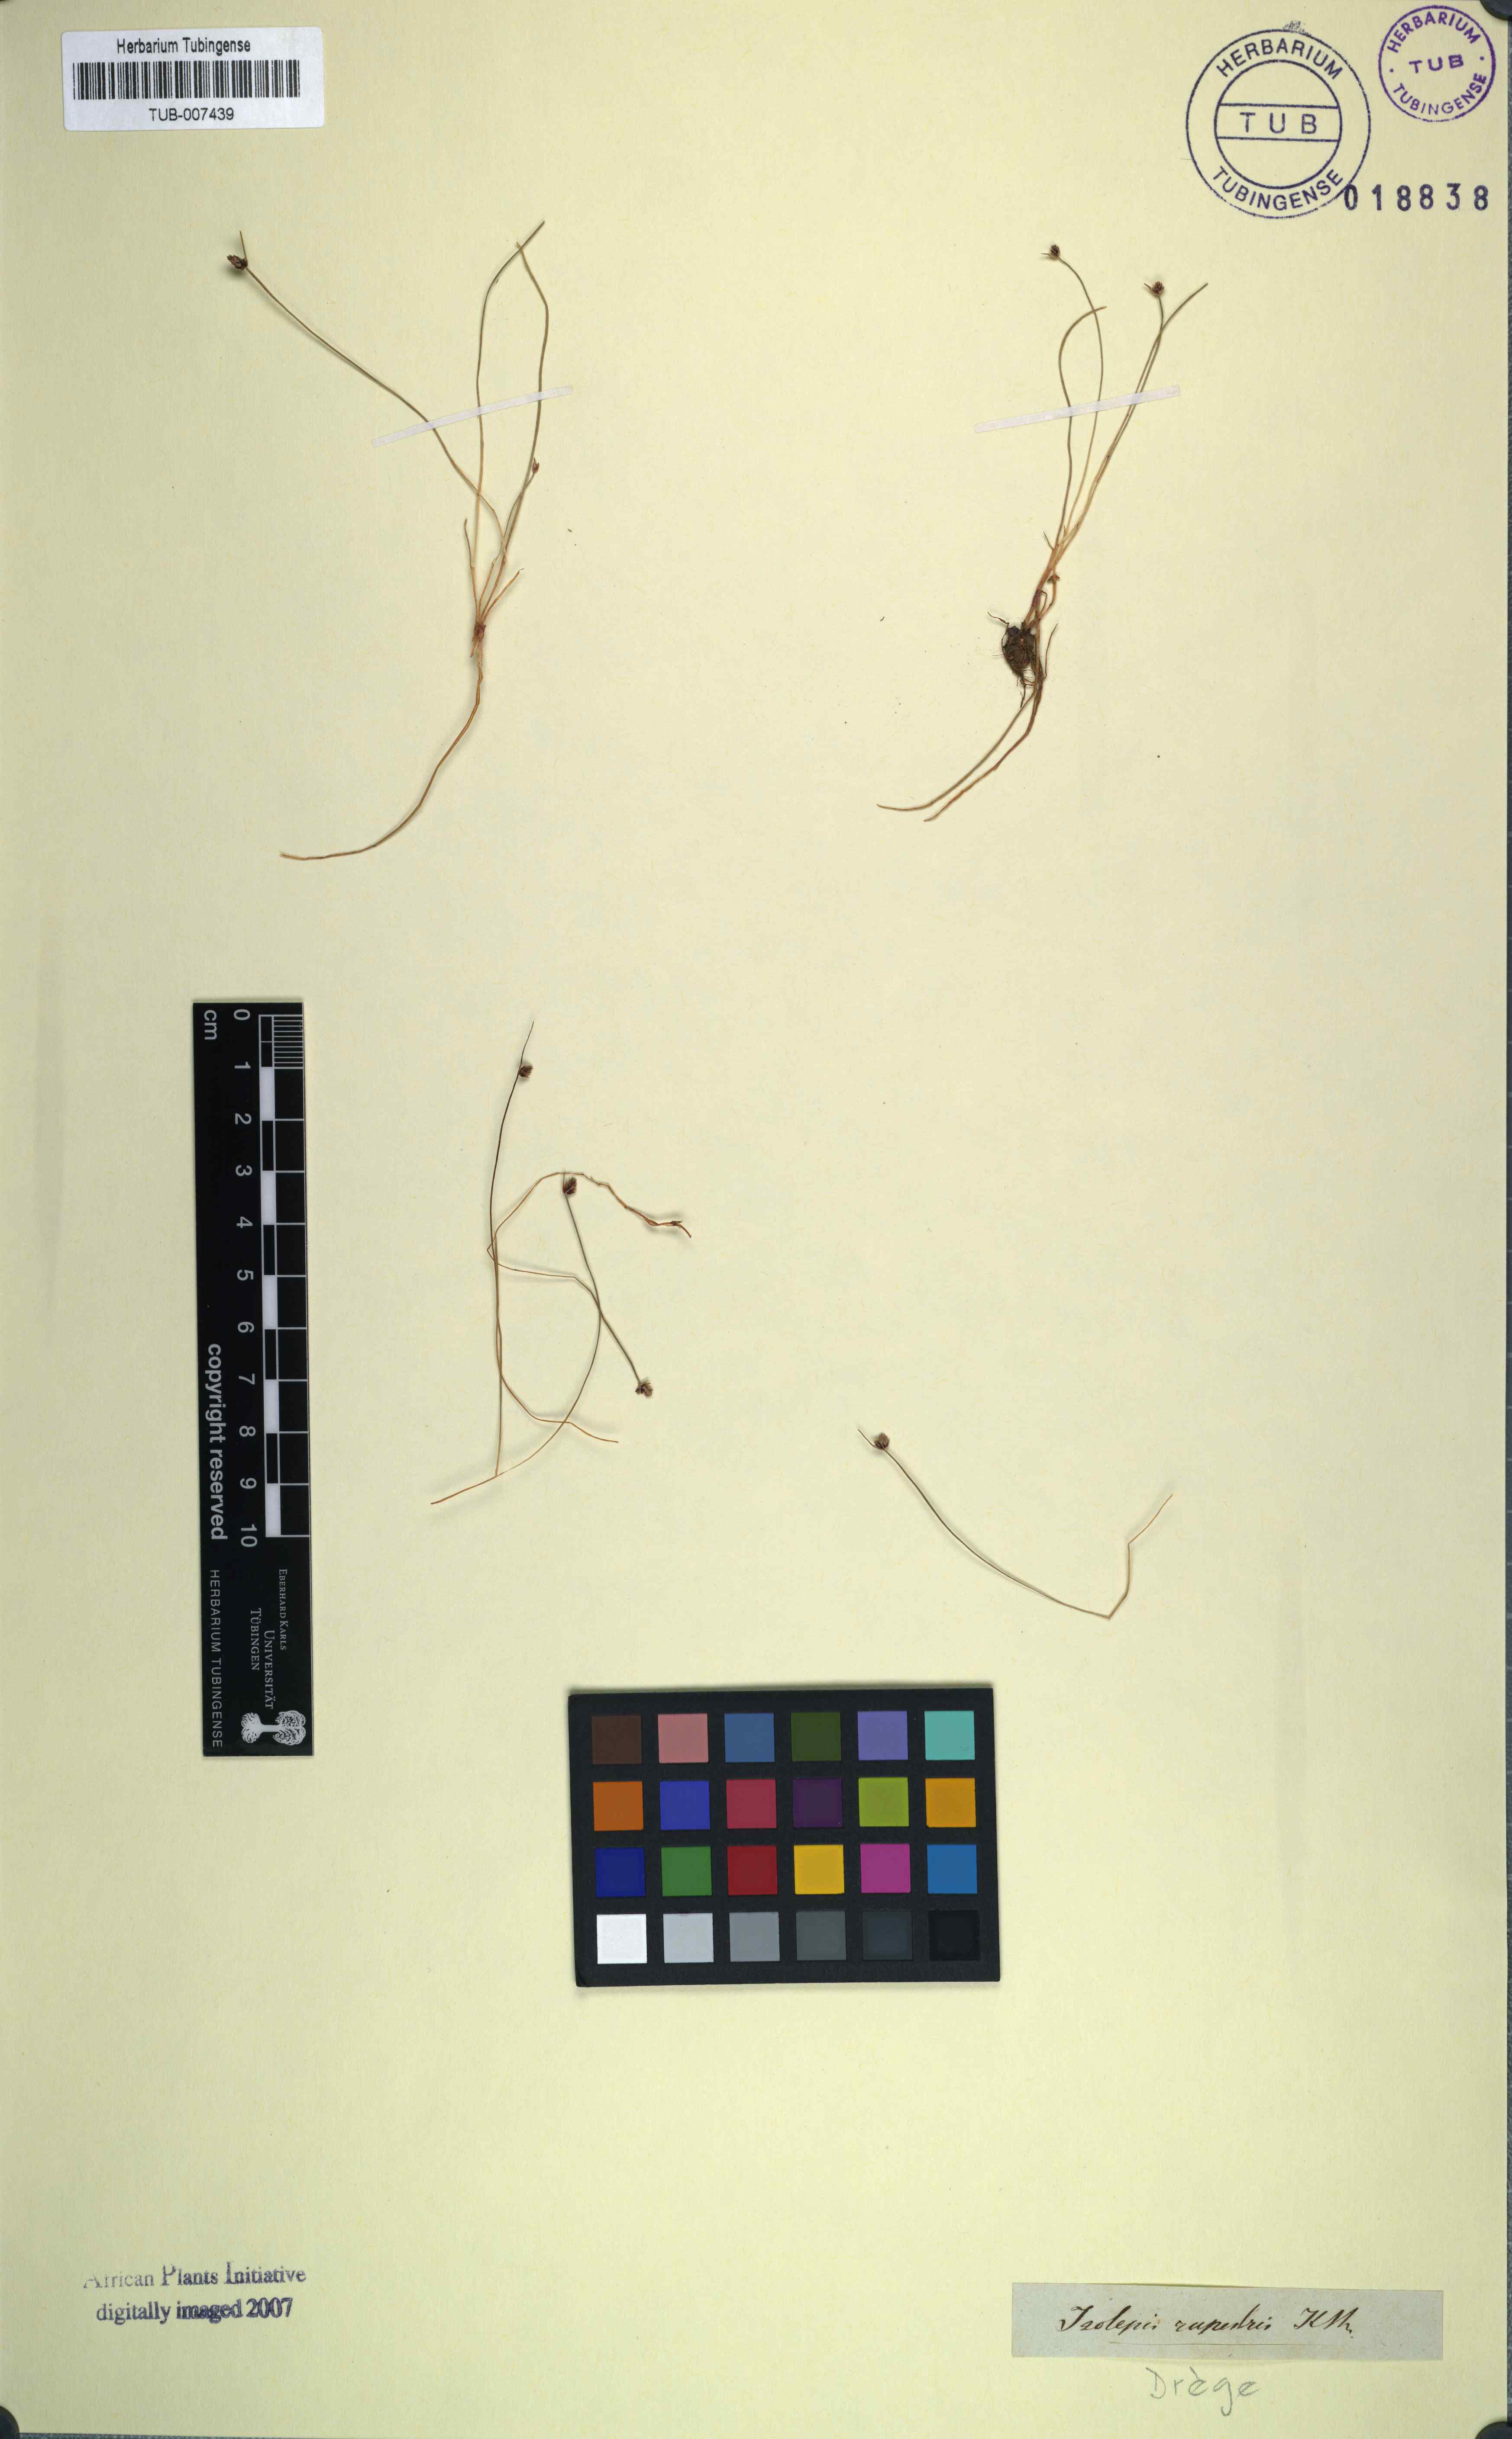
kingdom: Plantae
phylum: Tracheophyta
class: Liliopsida
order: Poales
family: Cyperaceae
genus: Isolepis
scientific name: Isolepis cernua
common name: Slender club-rush
